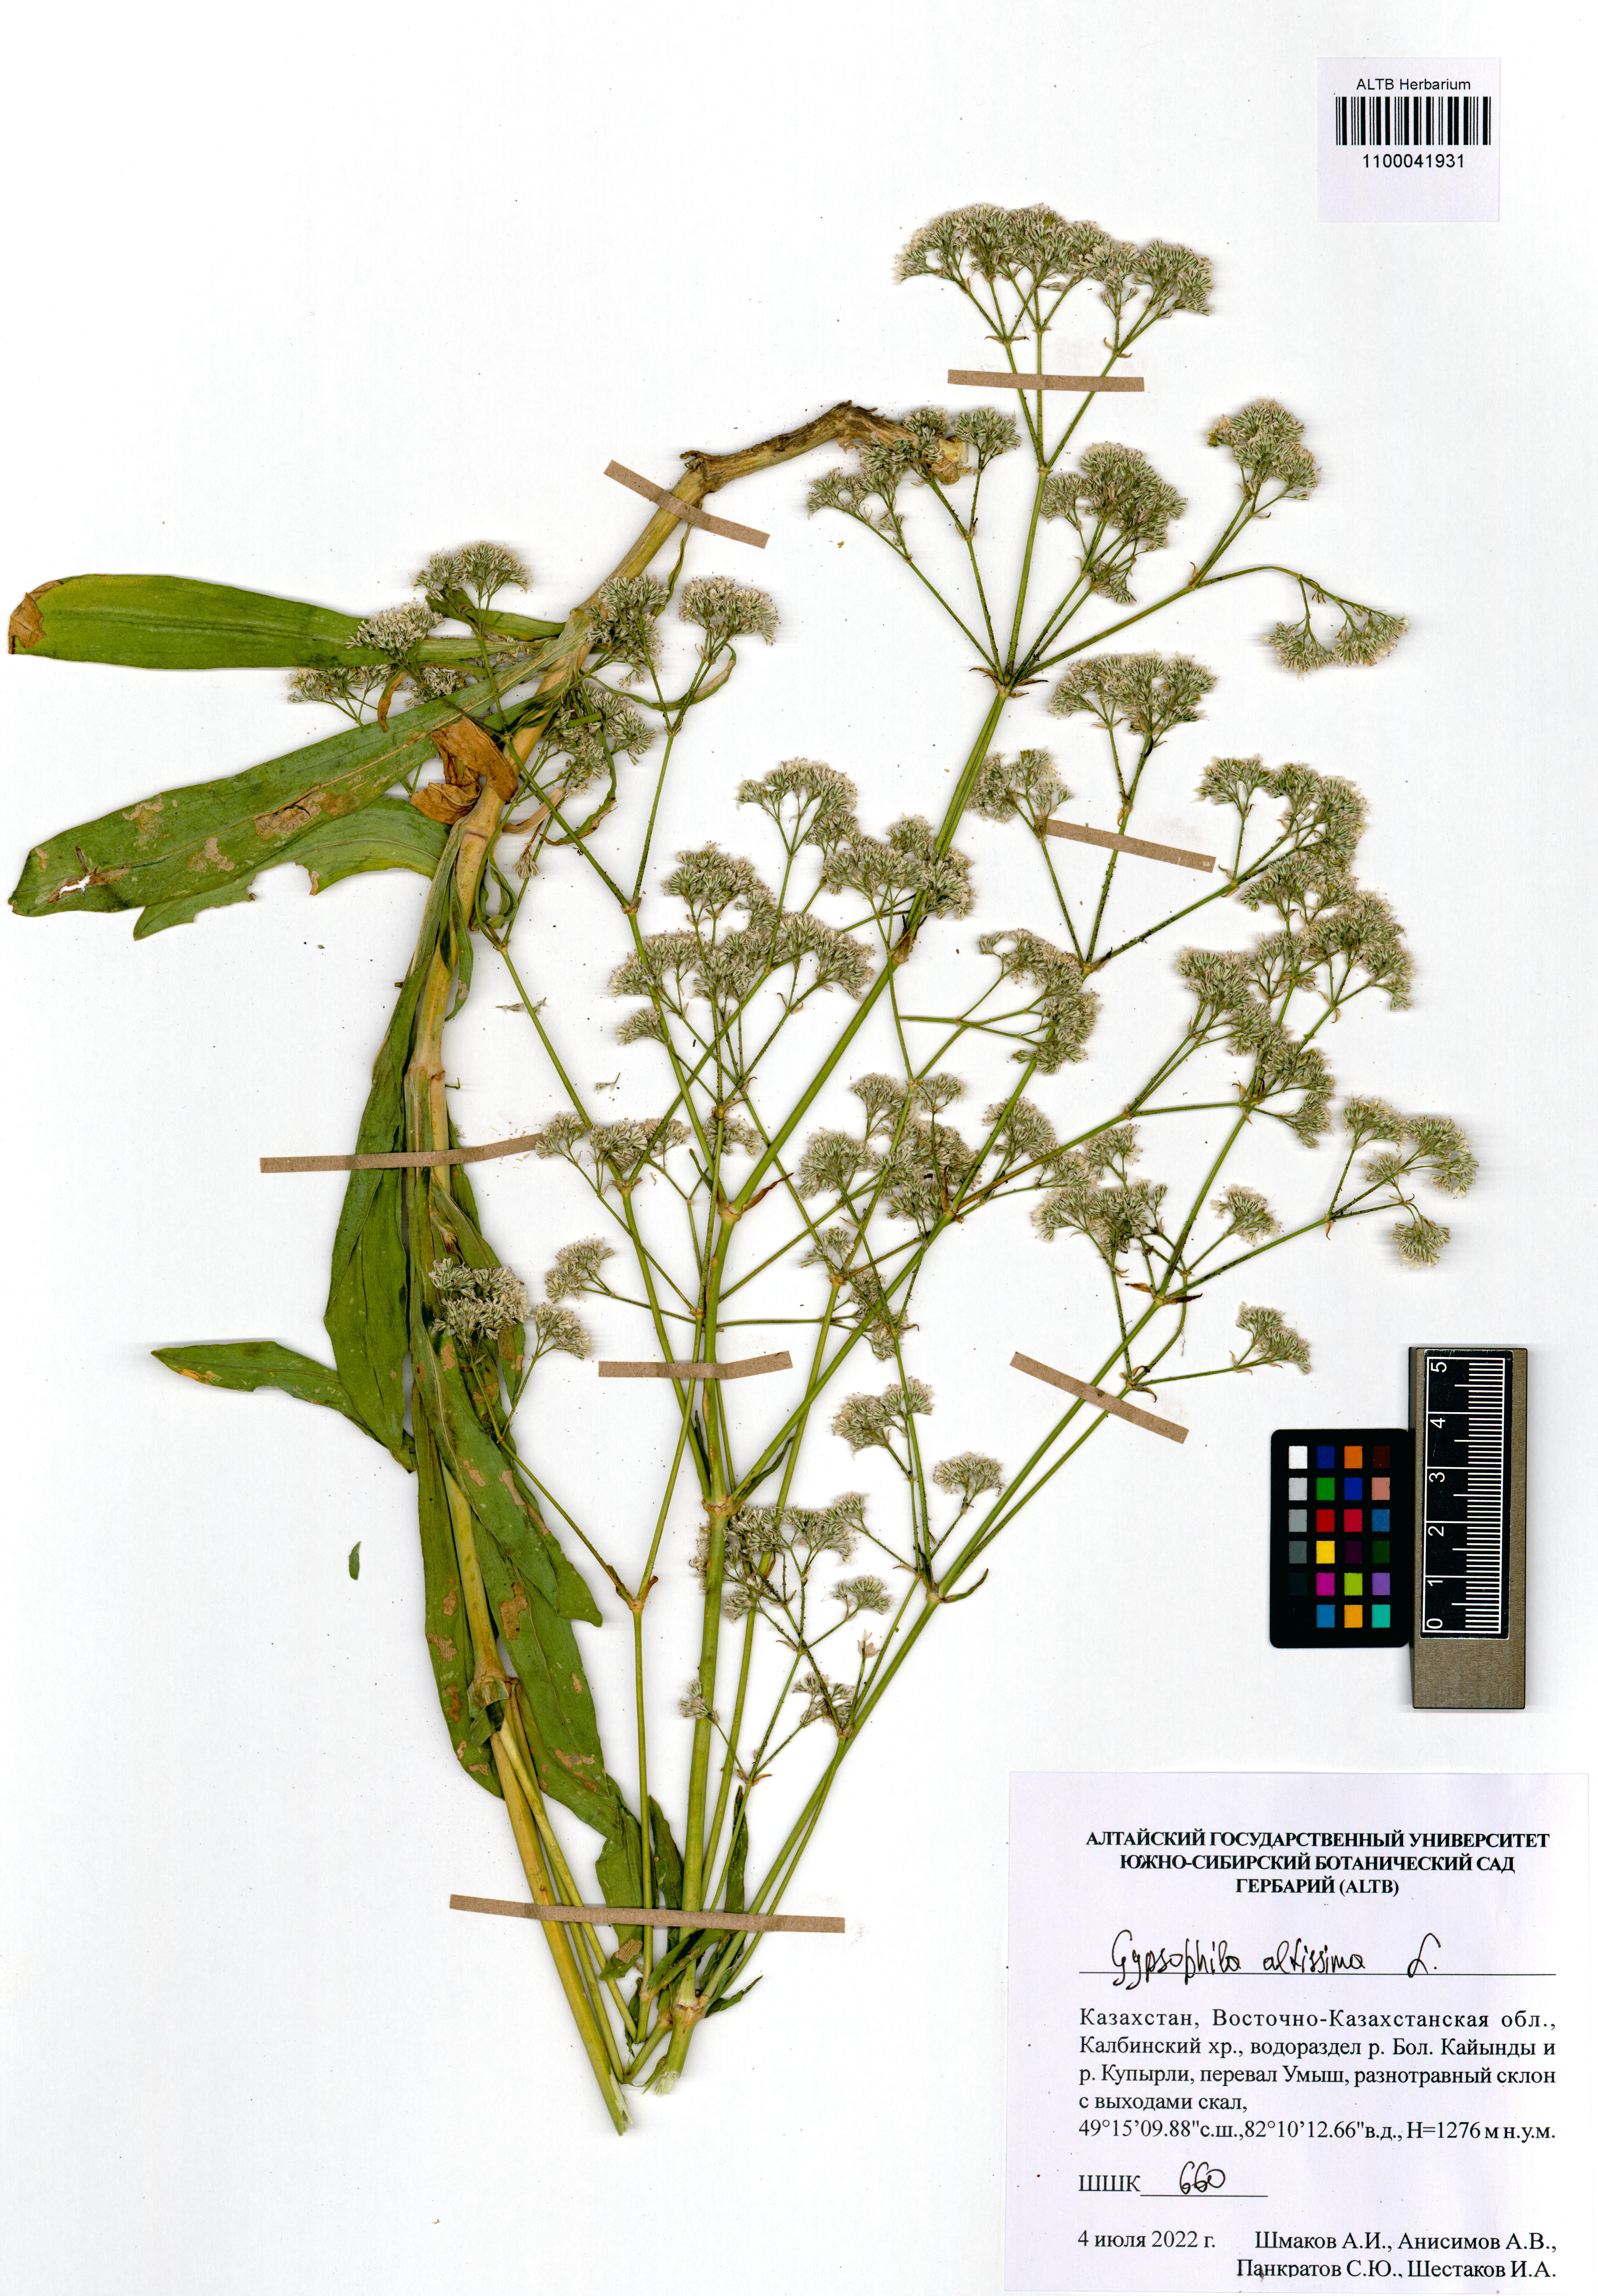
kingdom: Plantae
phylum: Tracheophyta
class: Magnoliopsida
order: Caryophyllales
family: Caryophyllaceae
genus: Gypsophila
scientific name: Gypsophila altissima
